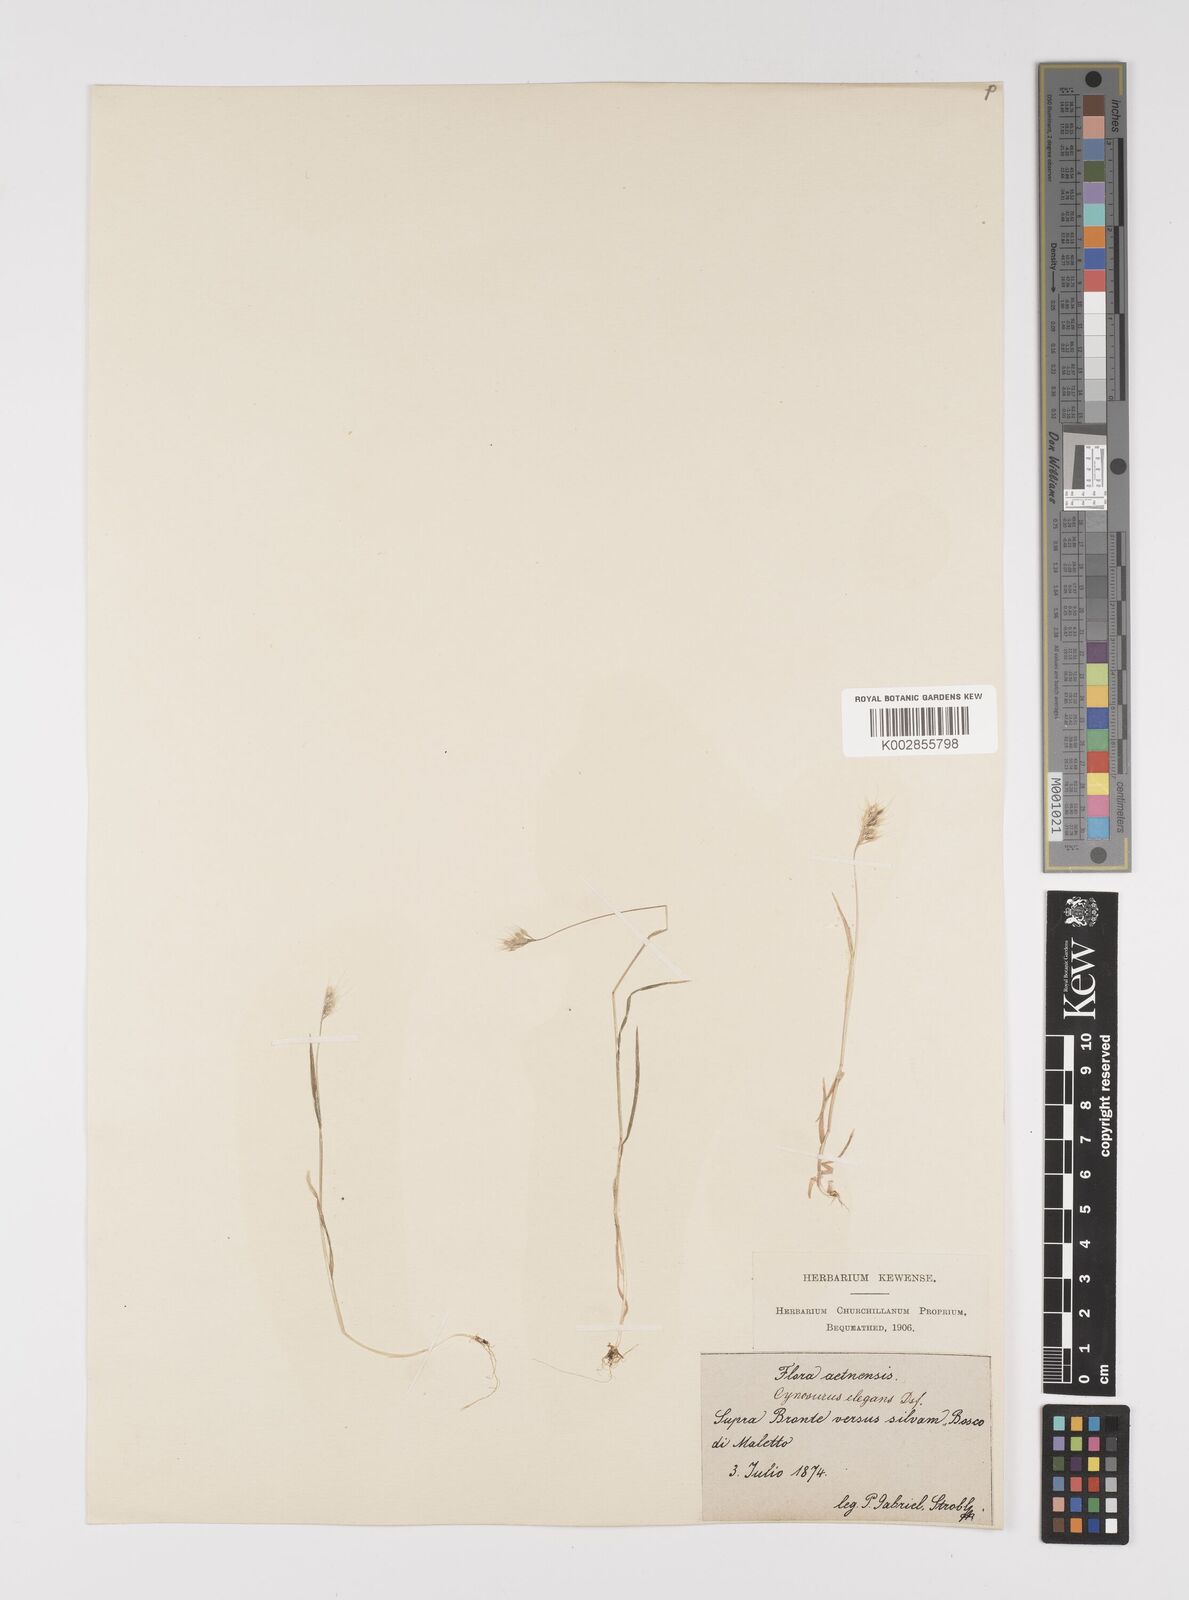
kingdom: Plantae
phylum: Tracheophyta
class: Liliopsida
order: Poales
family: Poaceae
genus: Cynosurus
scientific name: Cynosurus elegans
